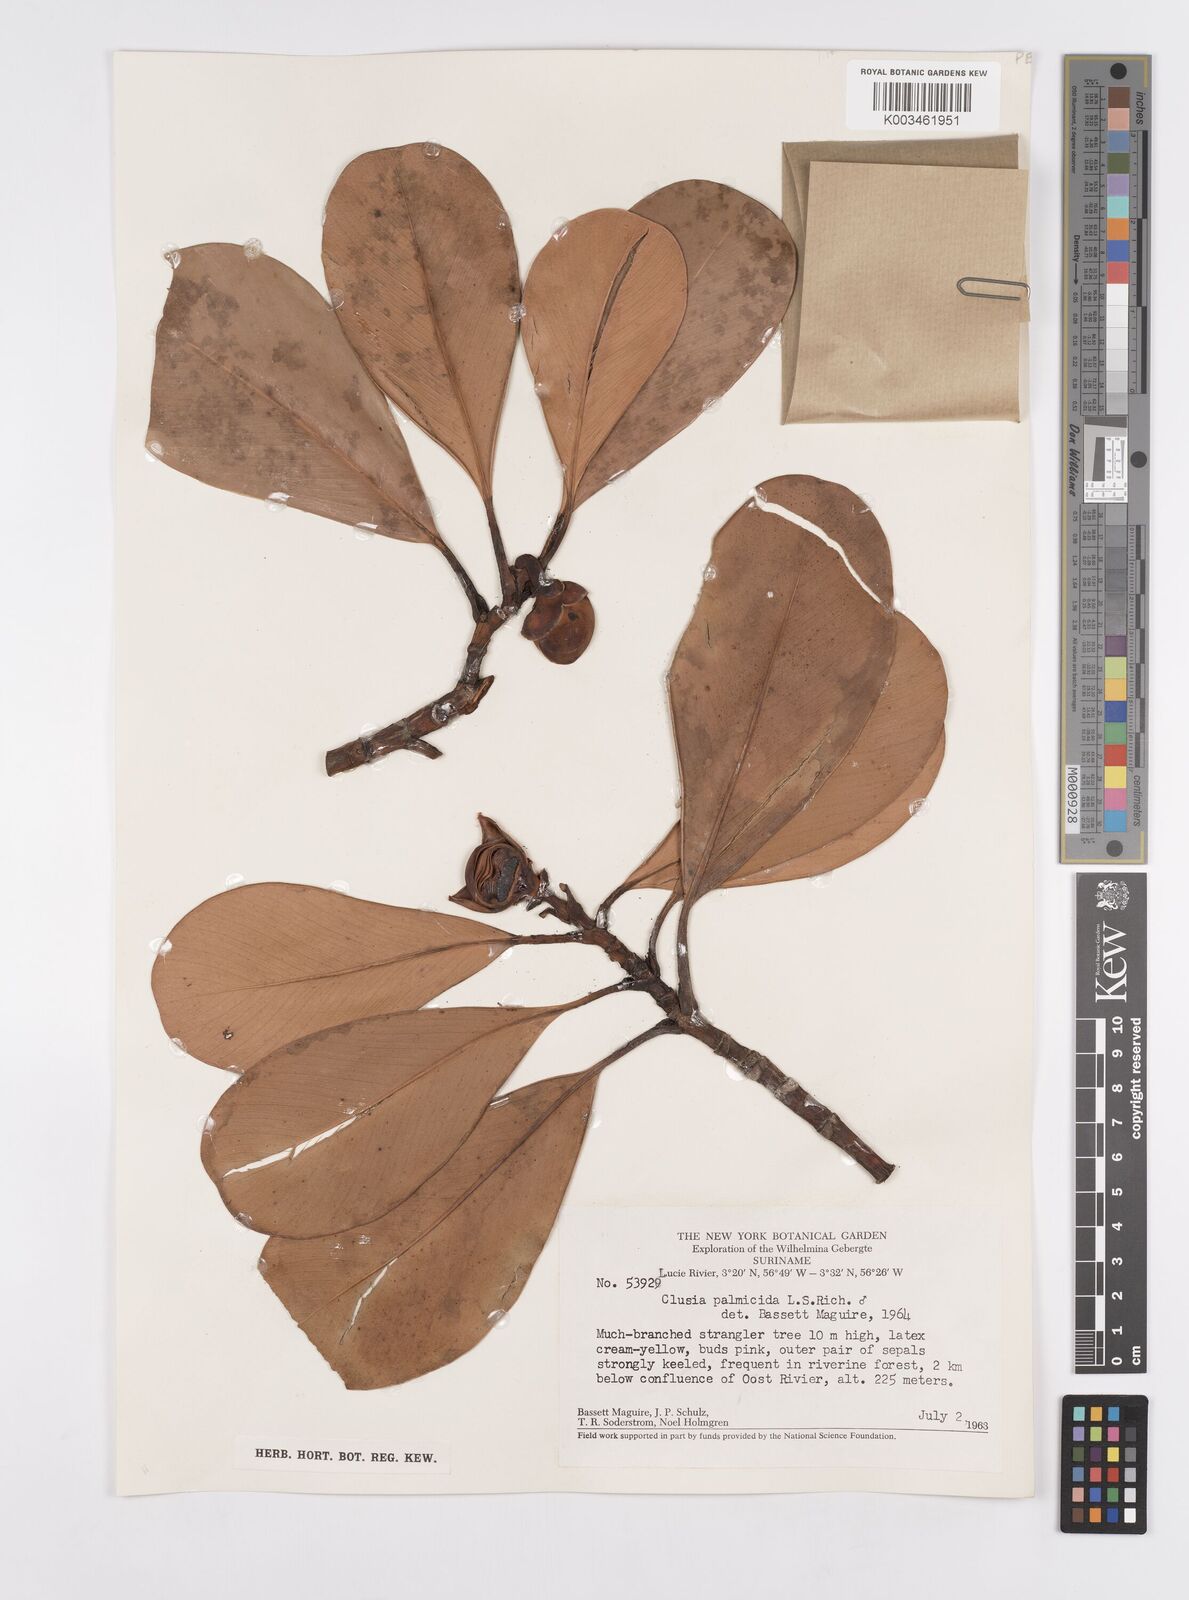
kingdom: Plantae
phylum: Tracheophyta
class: Magnoliopsida
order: Malpighiales
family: Clusiaceae
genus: Clusia
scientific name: Clusia palmicida
